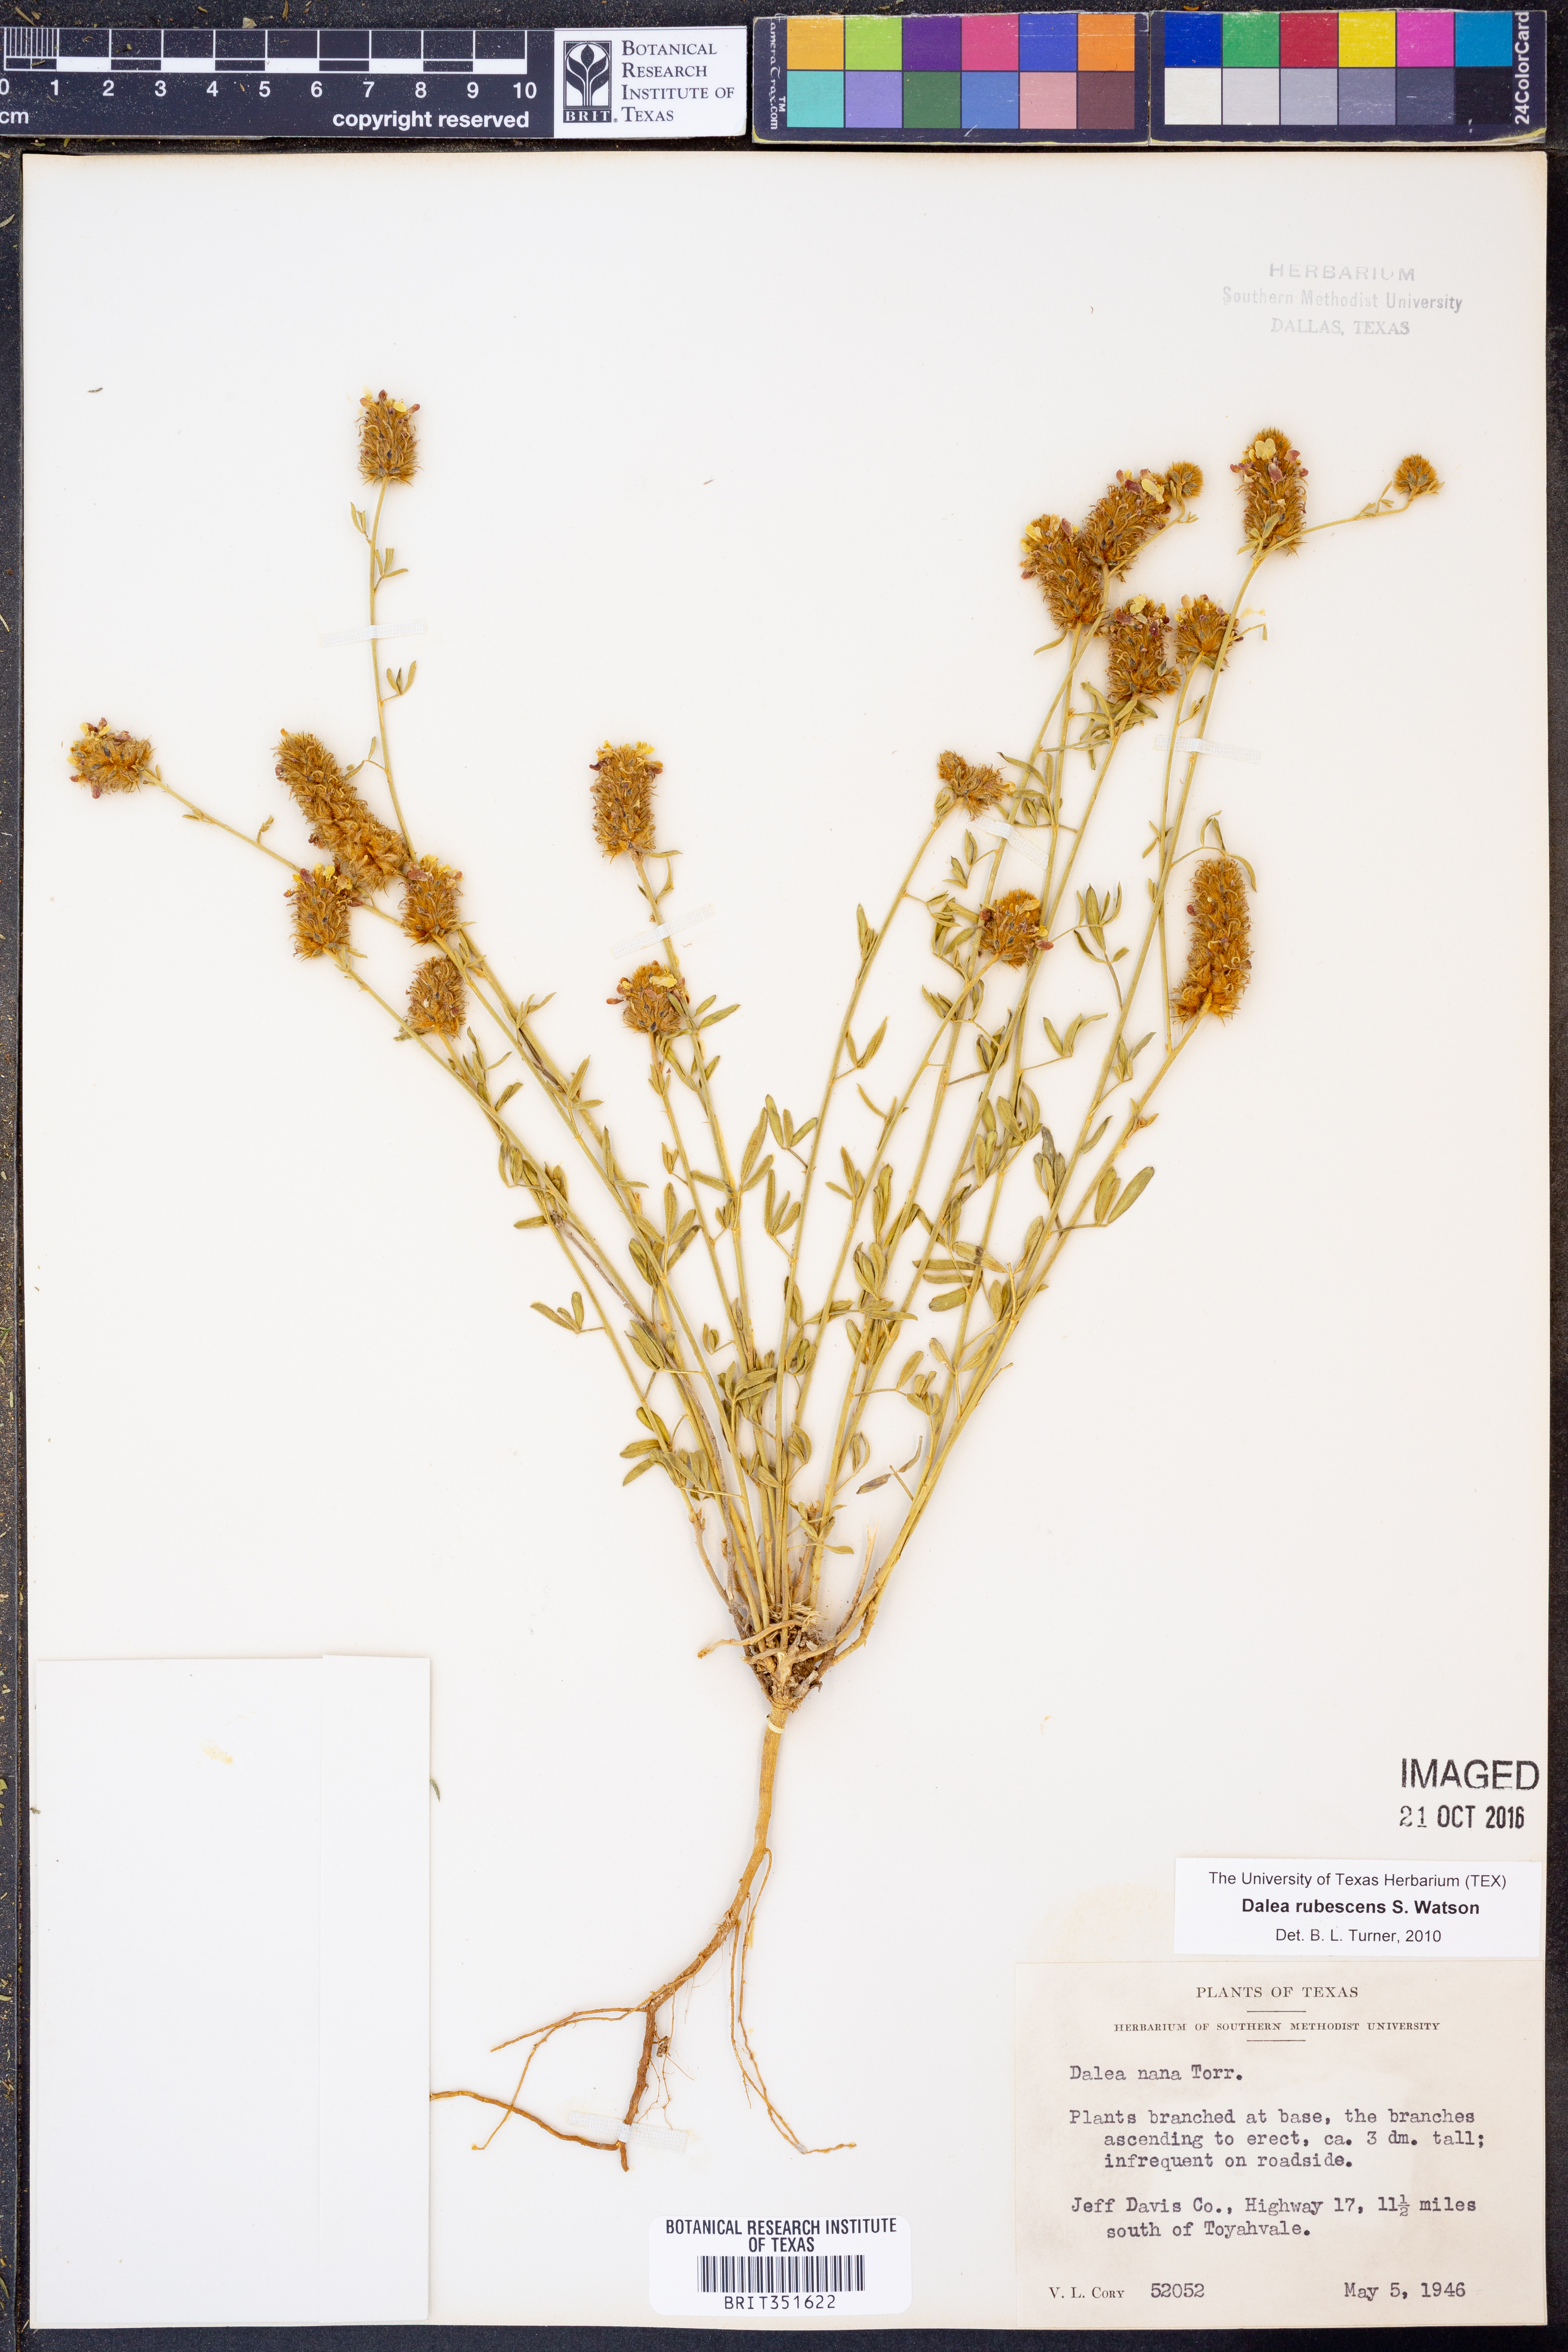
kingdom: Plantae
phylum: Tracheophyta
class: Magnoliopsida
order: Fabales
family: Fabaceae
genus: Dalea
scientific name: Dalea rubescens
